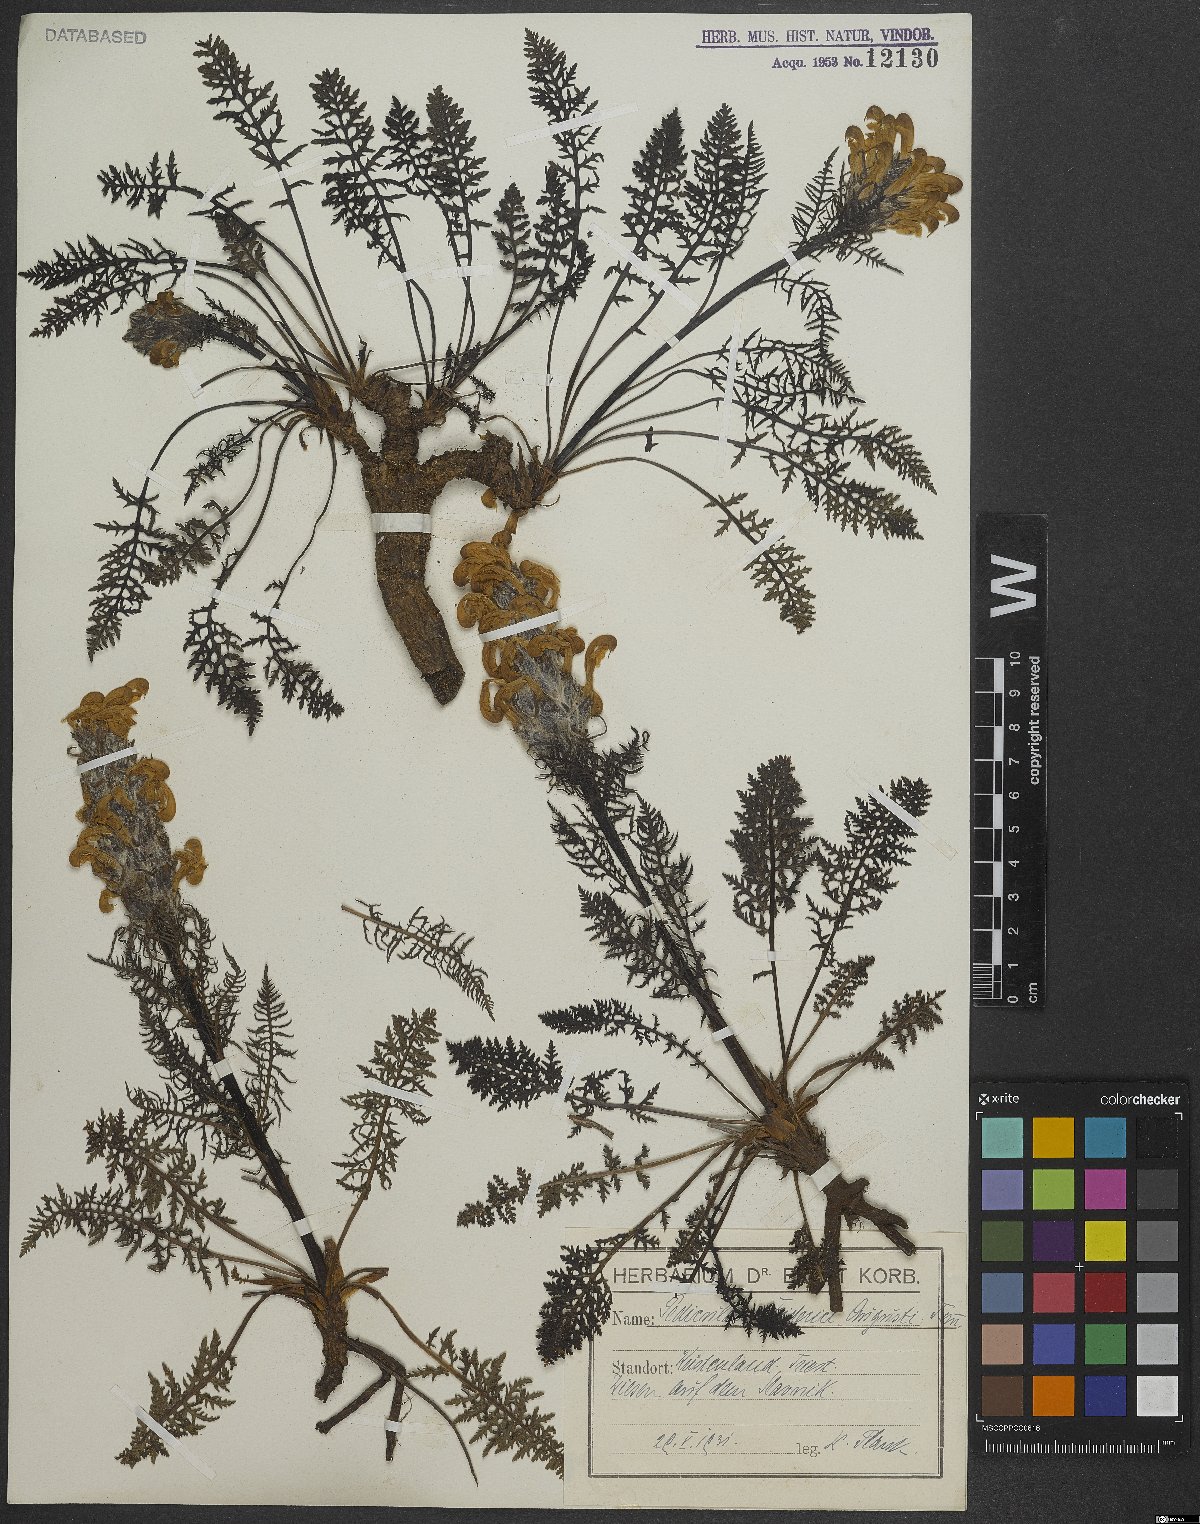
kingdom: Plantae
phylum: Tracheophyta
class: Magnoliopsida
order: Lamiales
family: Orobanchaceae
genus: Pedicularis
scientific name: Pedicularis friderici-augusti
